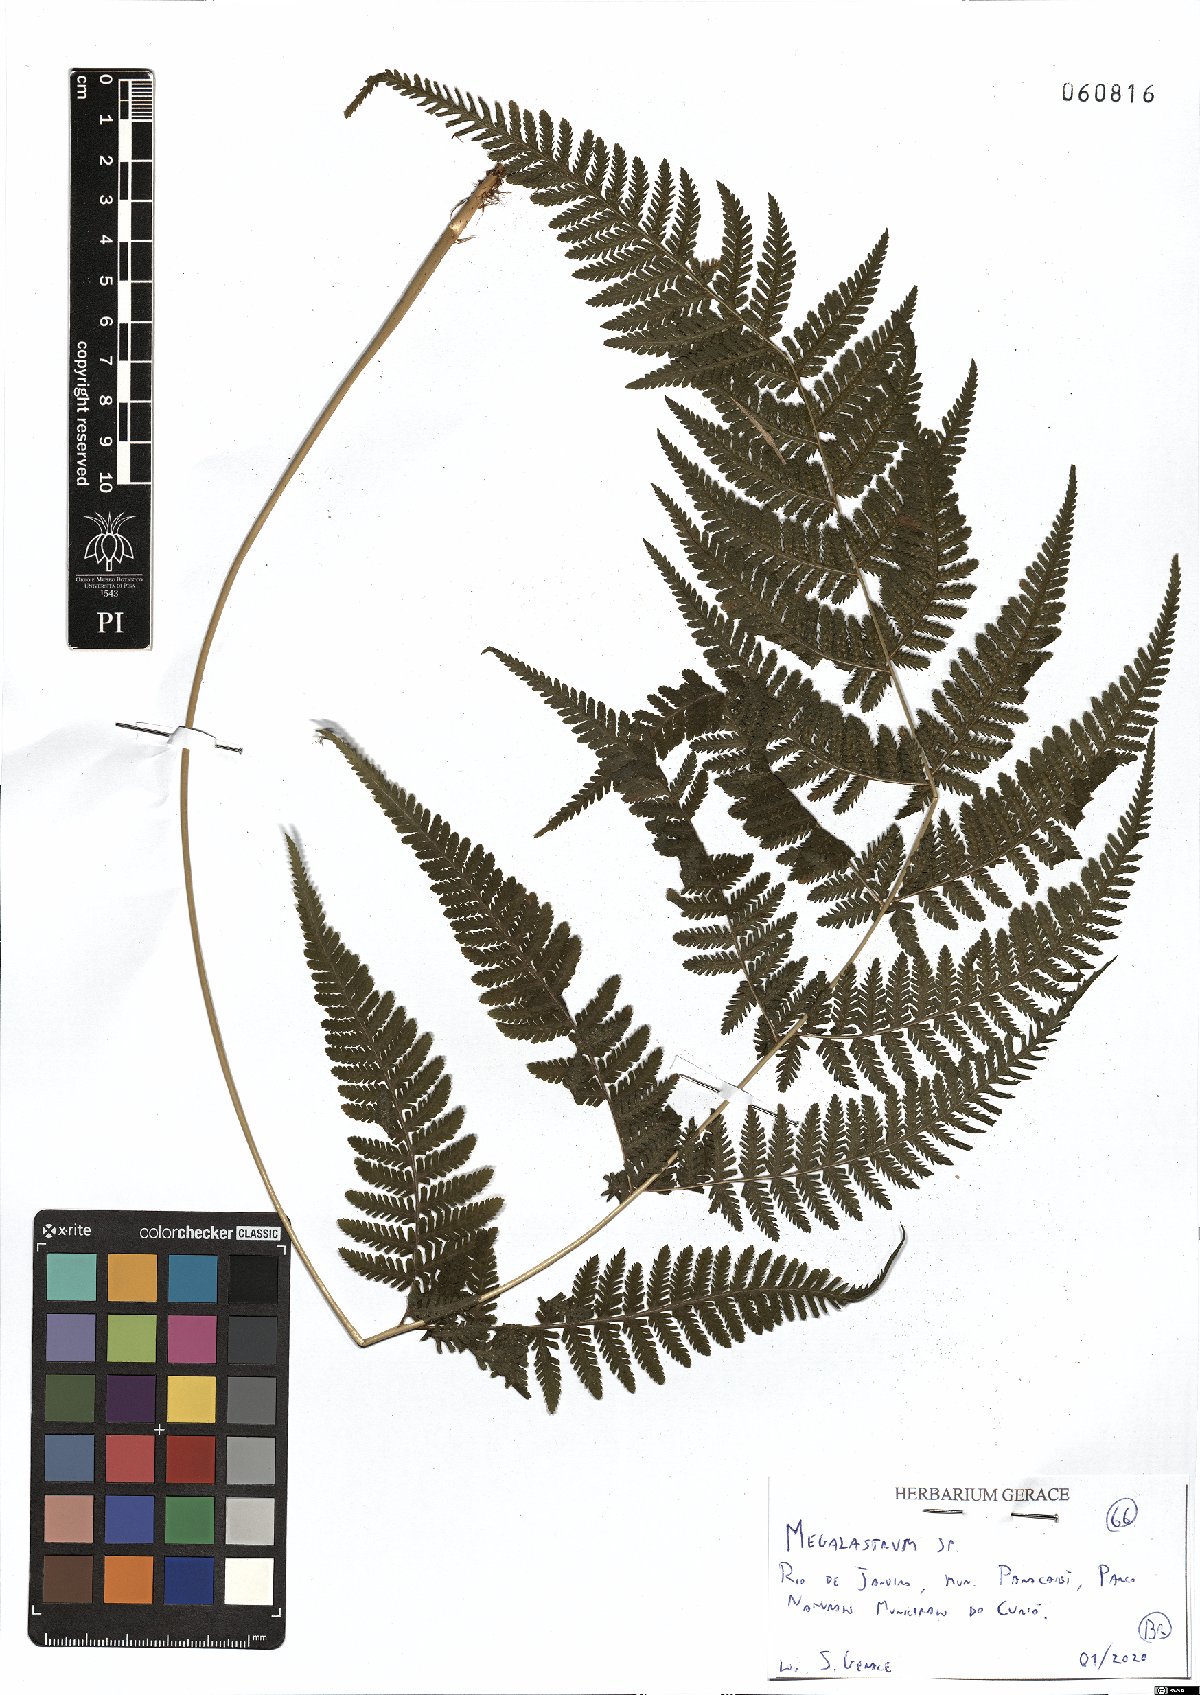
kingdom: Plantae
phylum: Tracheophyta
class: Polypodiopsida
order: Polypodiales
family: Dryopteridaceae
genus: Megalastrum
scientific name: Megalastrum
